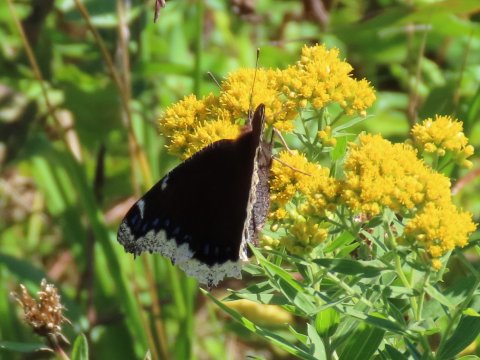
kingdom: Animalia
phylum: Arthropoda
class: Insecta
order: Lepidoptera
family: Nymphalidae
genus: Nymphalis
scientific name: Nymphalis antiopa
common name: Mourning Cloak
